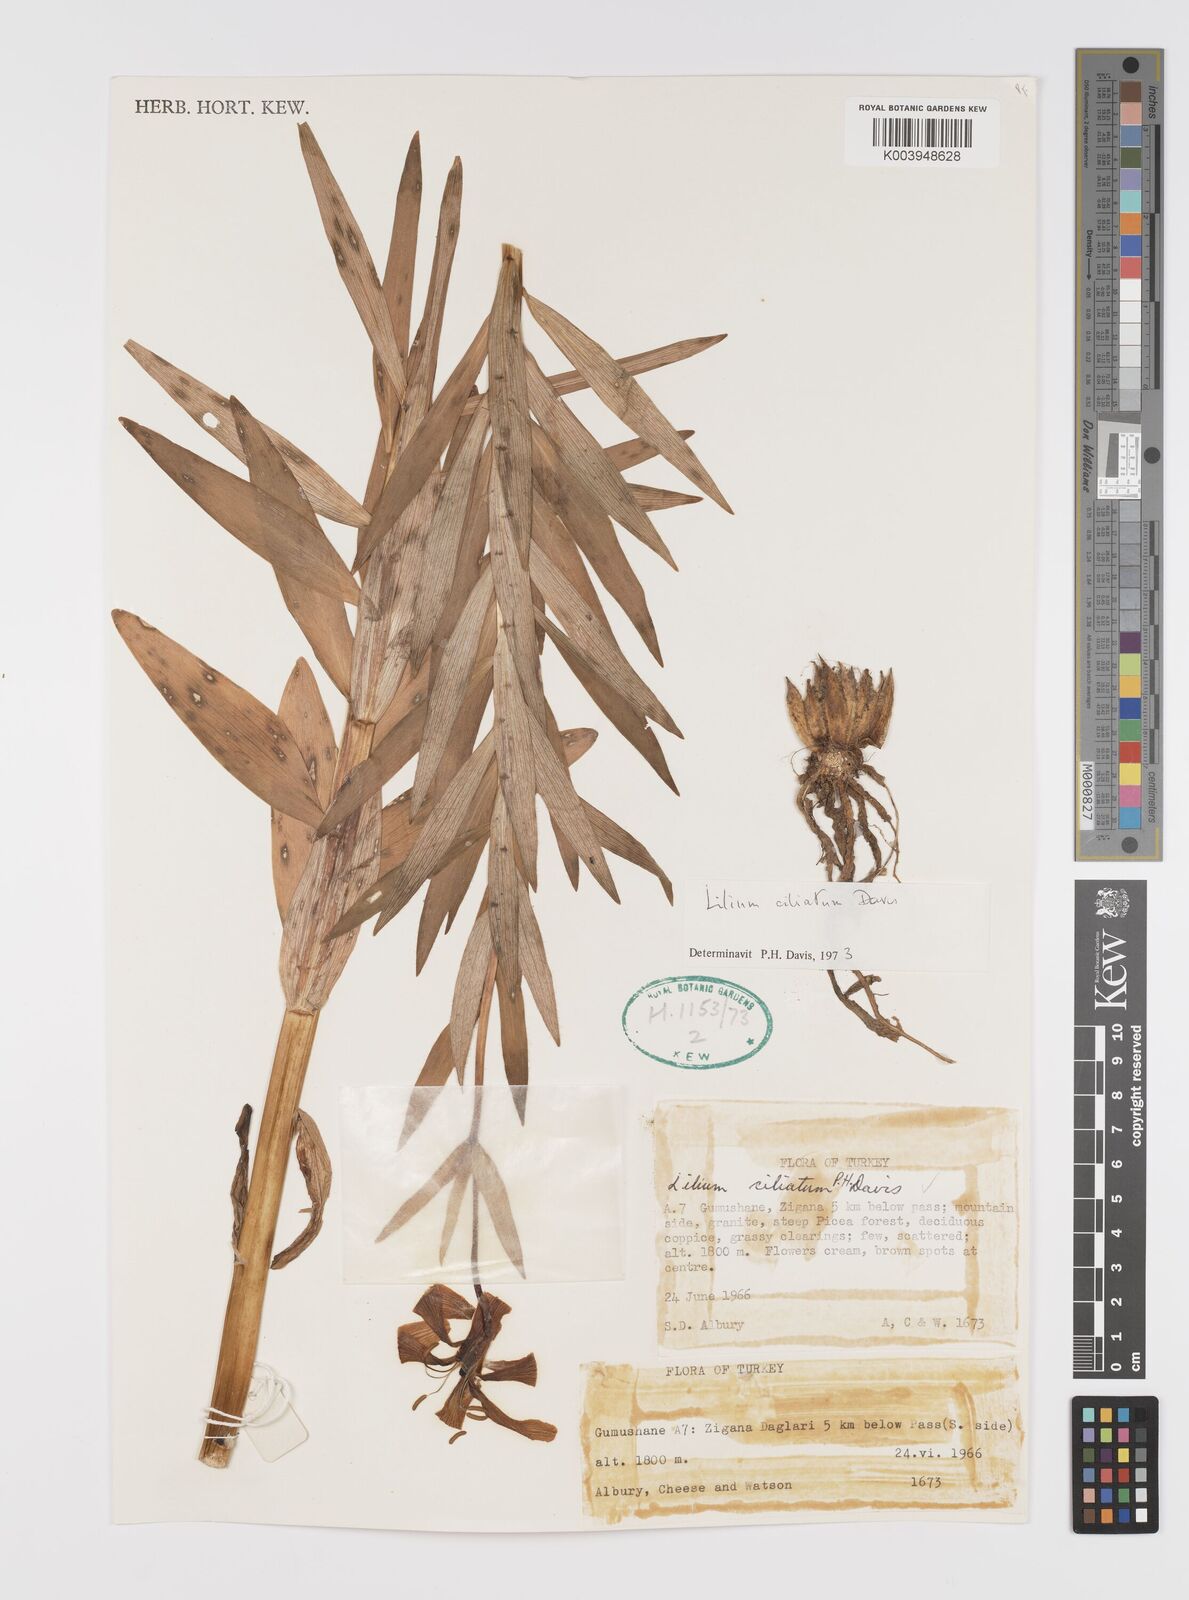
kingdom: Plantae
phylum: Tracheophyta
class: Liliopsida
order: Liliales
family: Liliaceae
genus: Lilium
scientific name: Lilium ciliatum
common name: Ciliate lily
